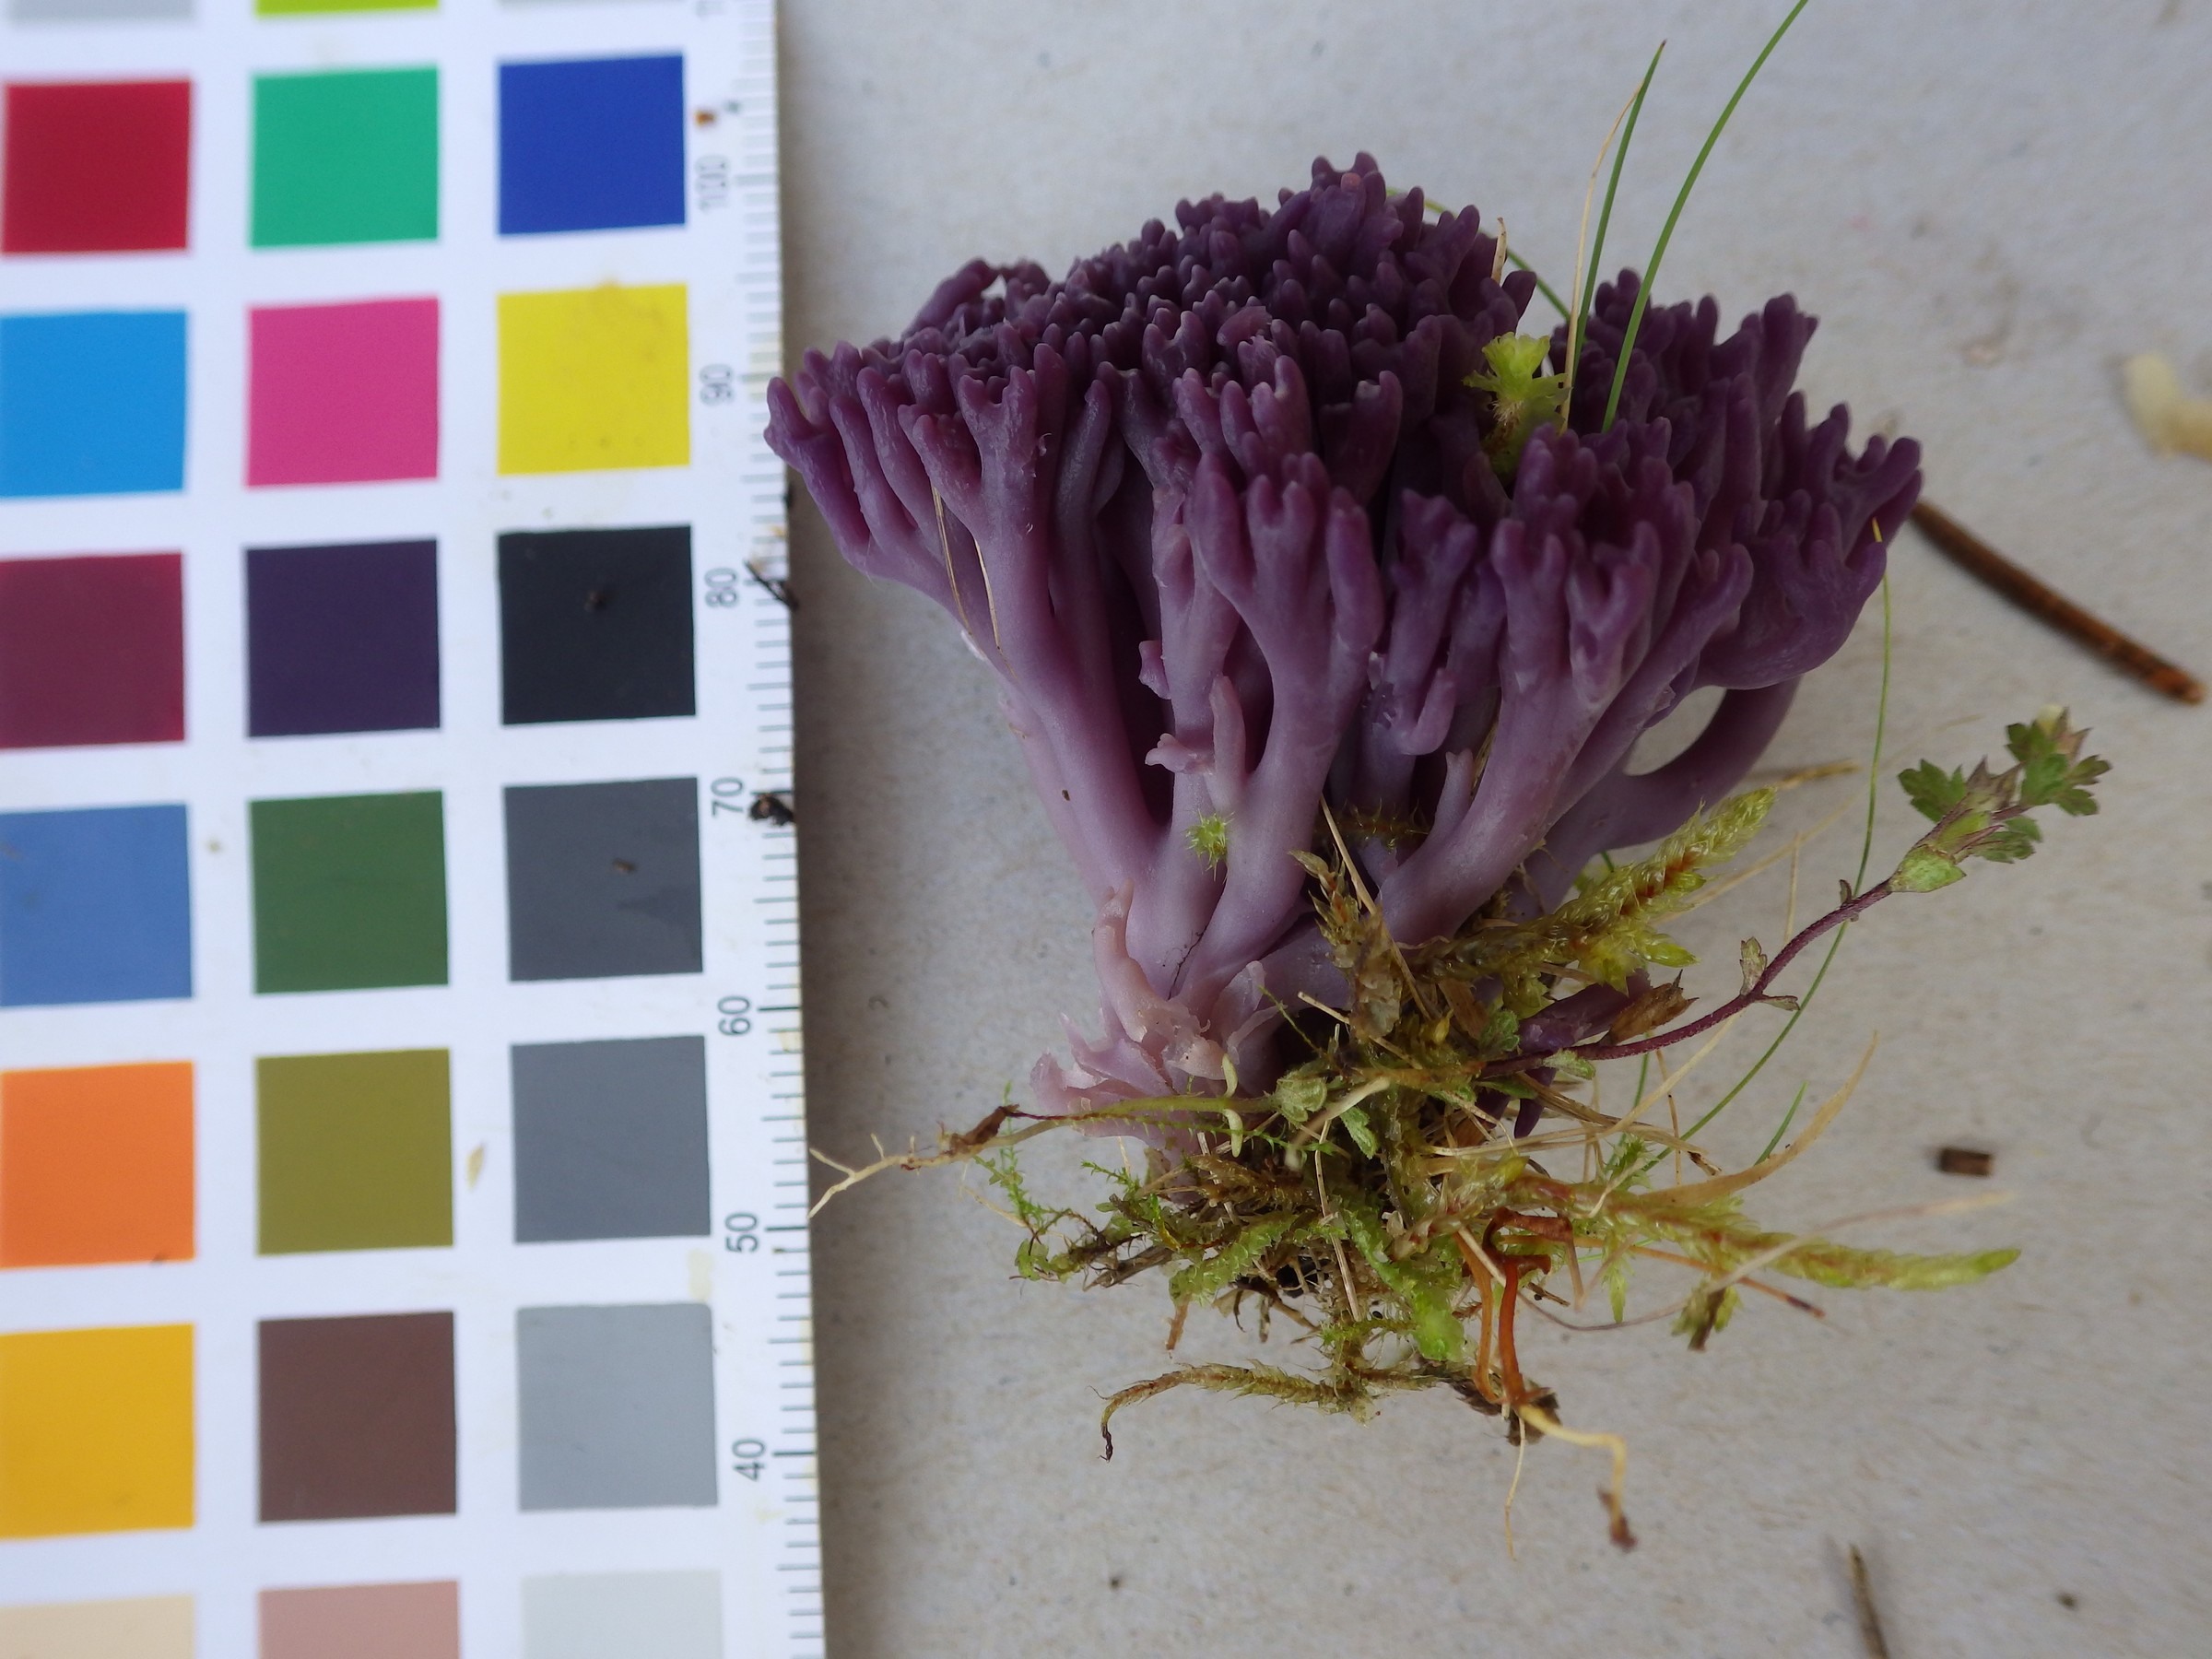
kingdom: Fungi
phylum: Basidiomycota
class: Agaricomycetes
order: Agaricales
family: Clavariaceae
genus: Clavaria
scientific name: Clavaria zollingeri
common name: Violet coral
